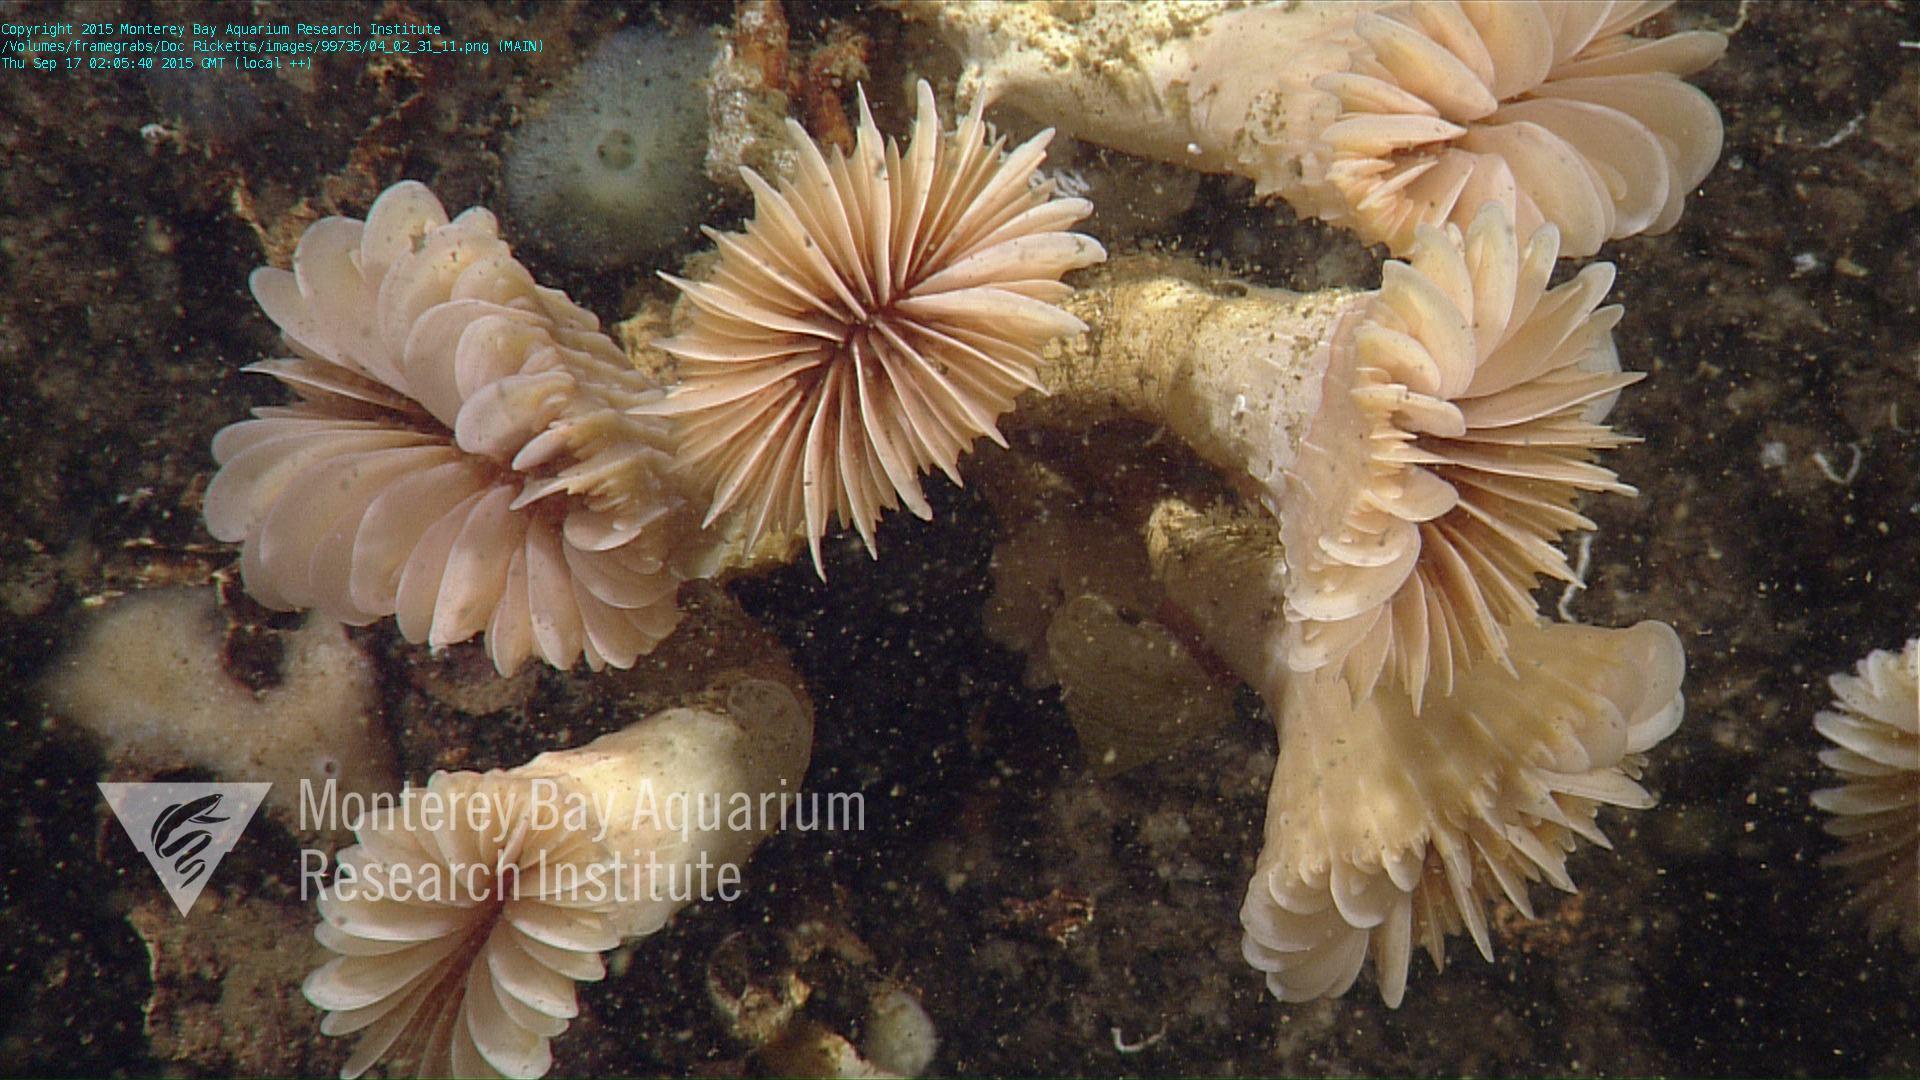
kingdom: Animalia
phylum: Cnidaria
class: Anthozoa
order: Scleractinia
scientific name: Scleractinia
